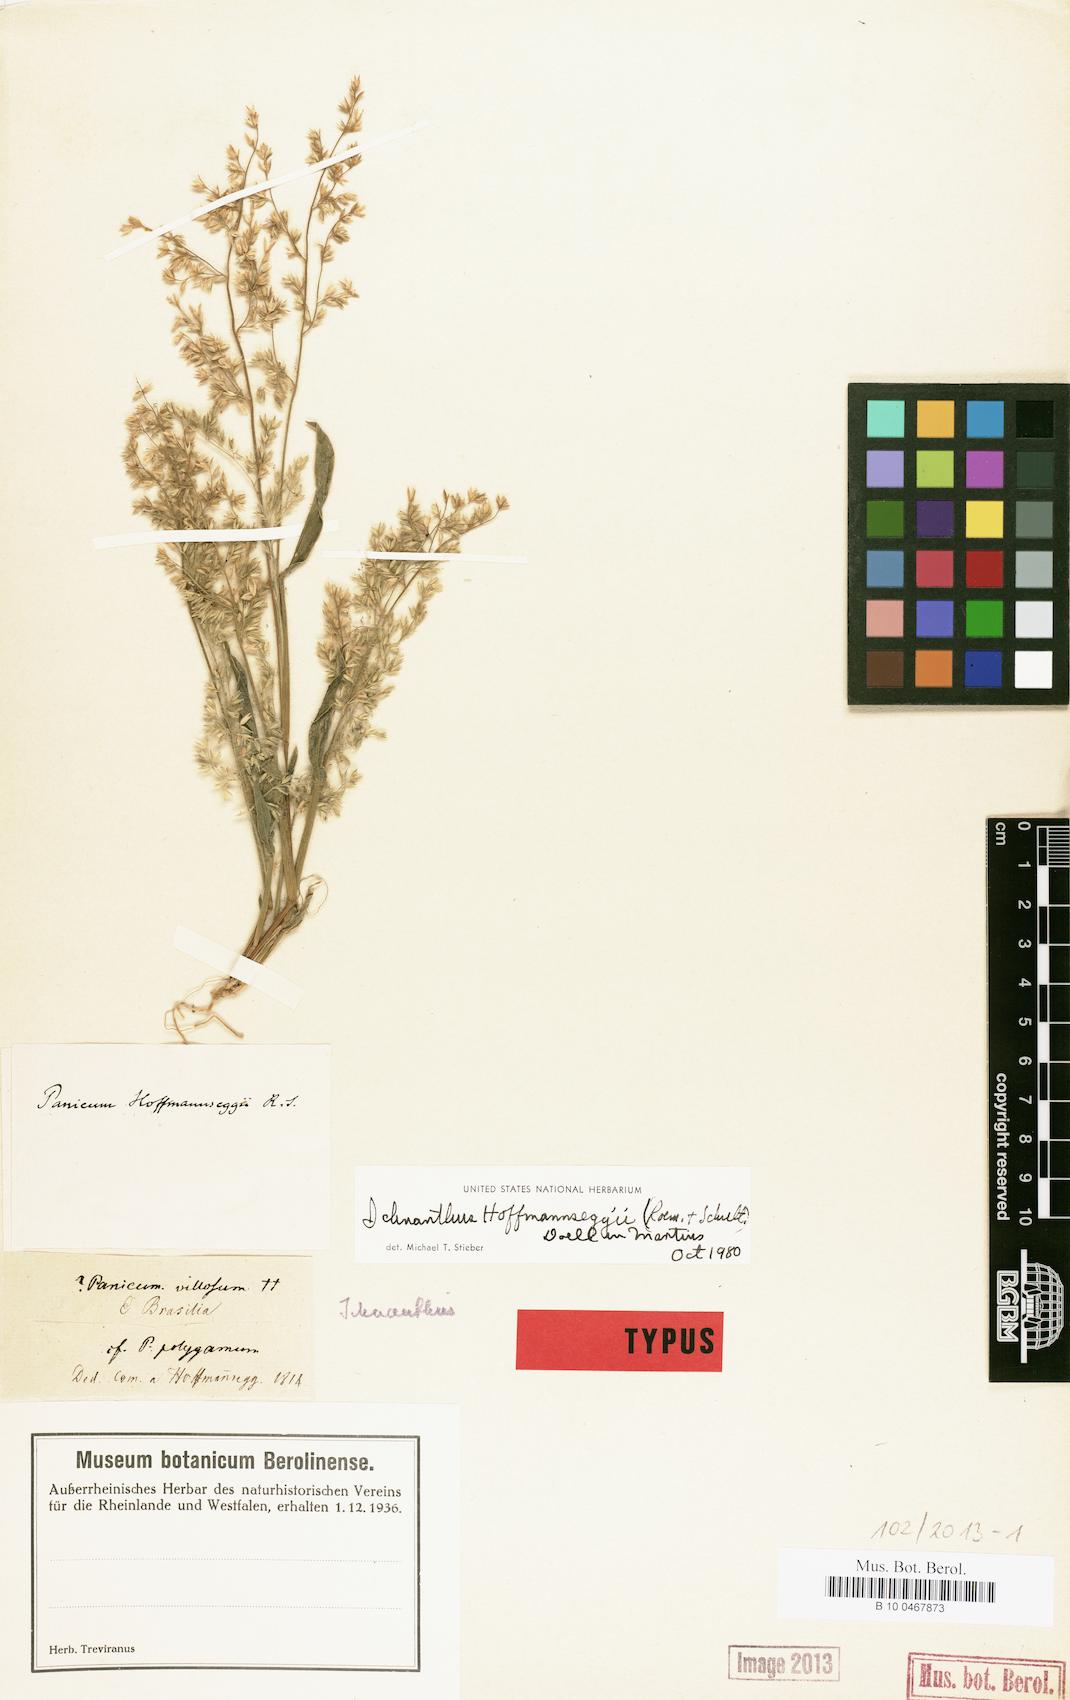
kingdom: Plantae
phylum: Tracheophyta
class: Liliopsida
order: Poales
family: Poaceae
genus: Ichnanthus
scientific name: Ichnanthus hoffmannseggii
